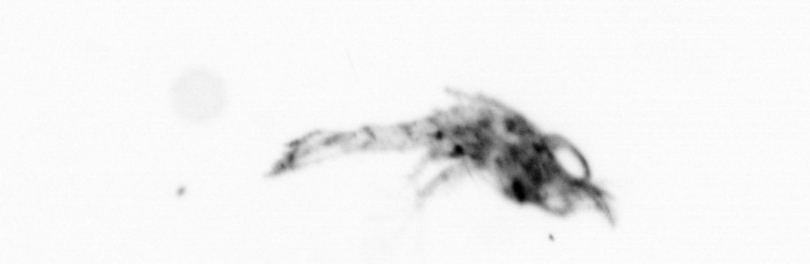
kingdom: Animalia
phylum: Arthropoda
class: Malacostraca
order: Decapoda
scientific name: Decapoda
